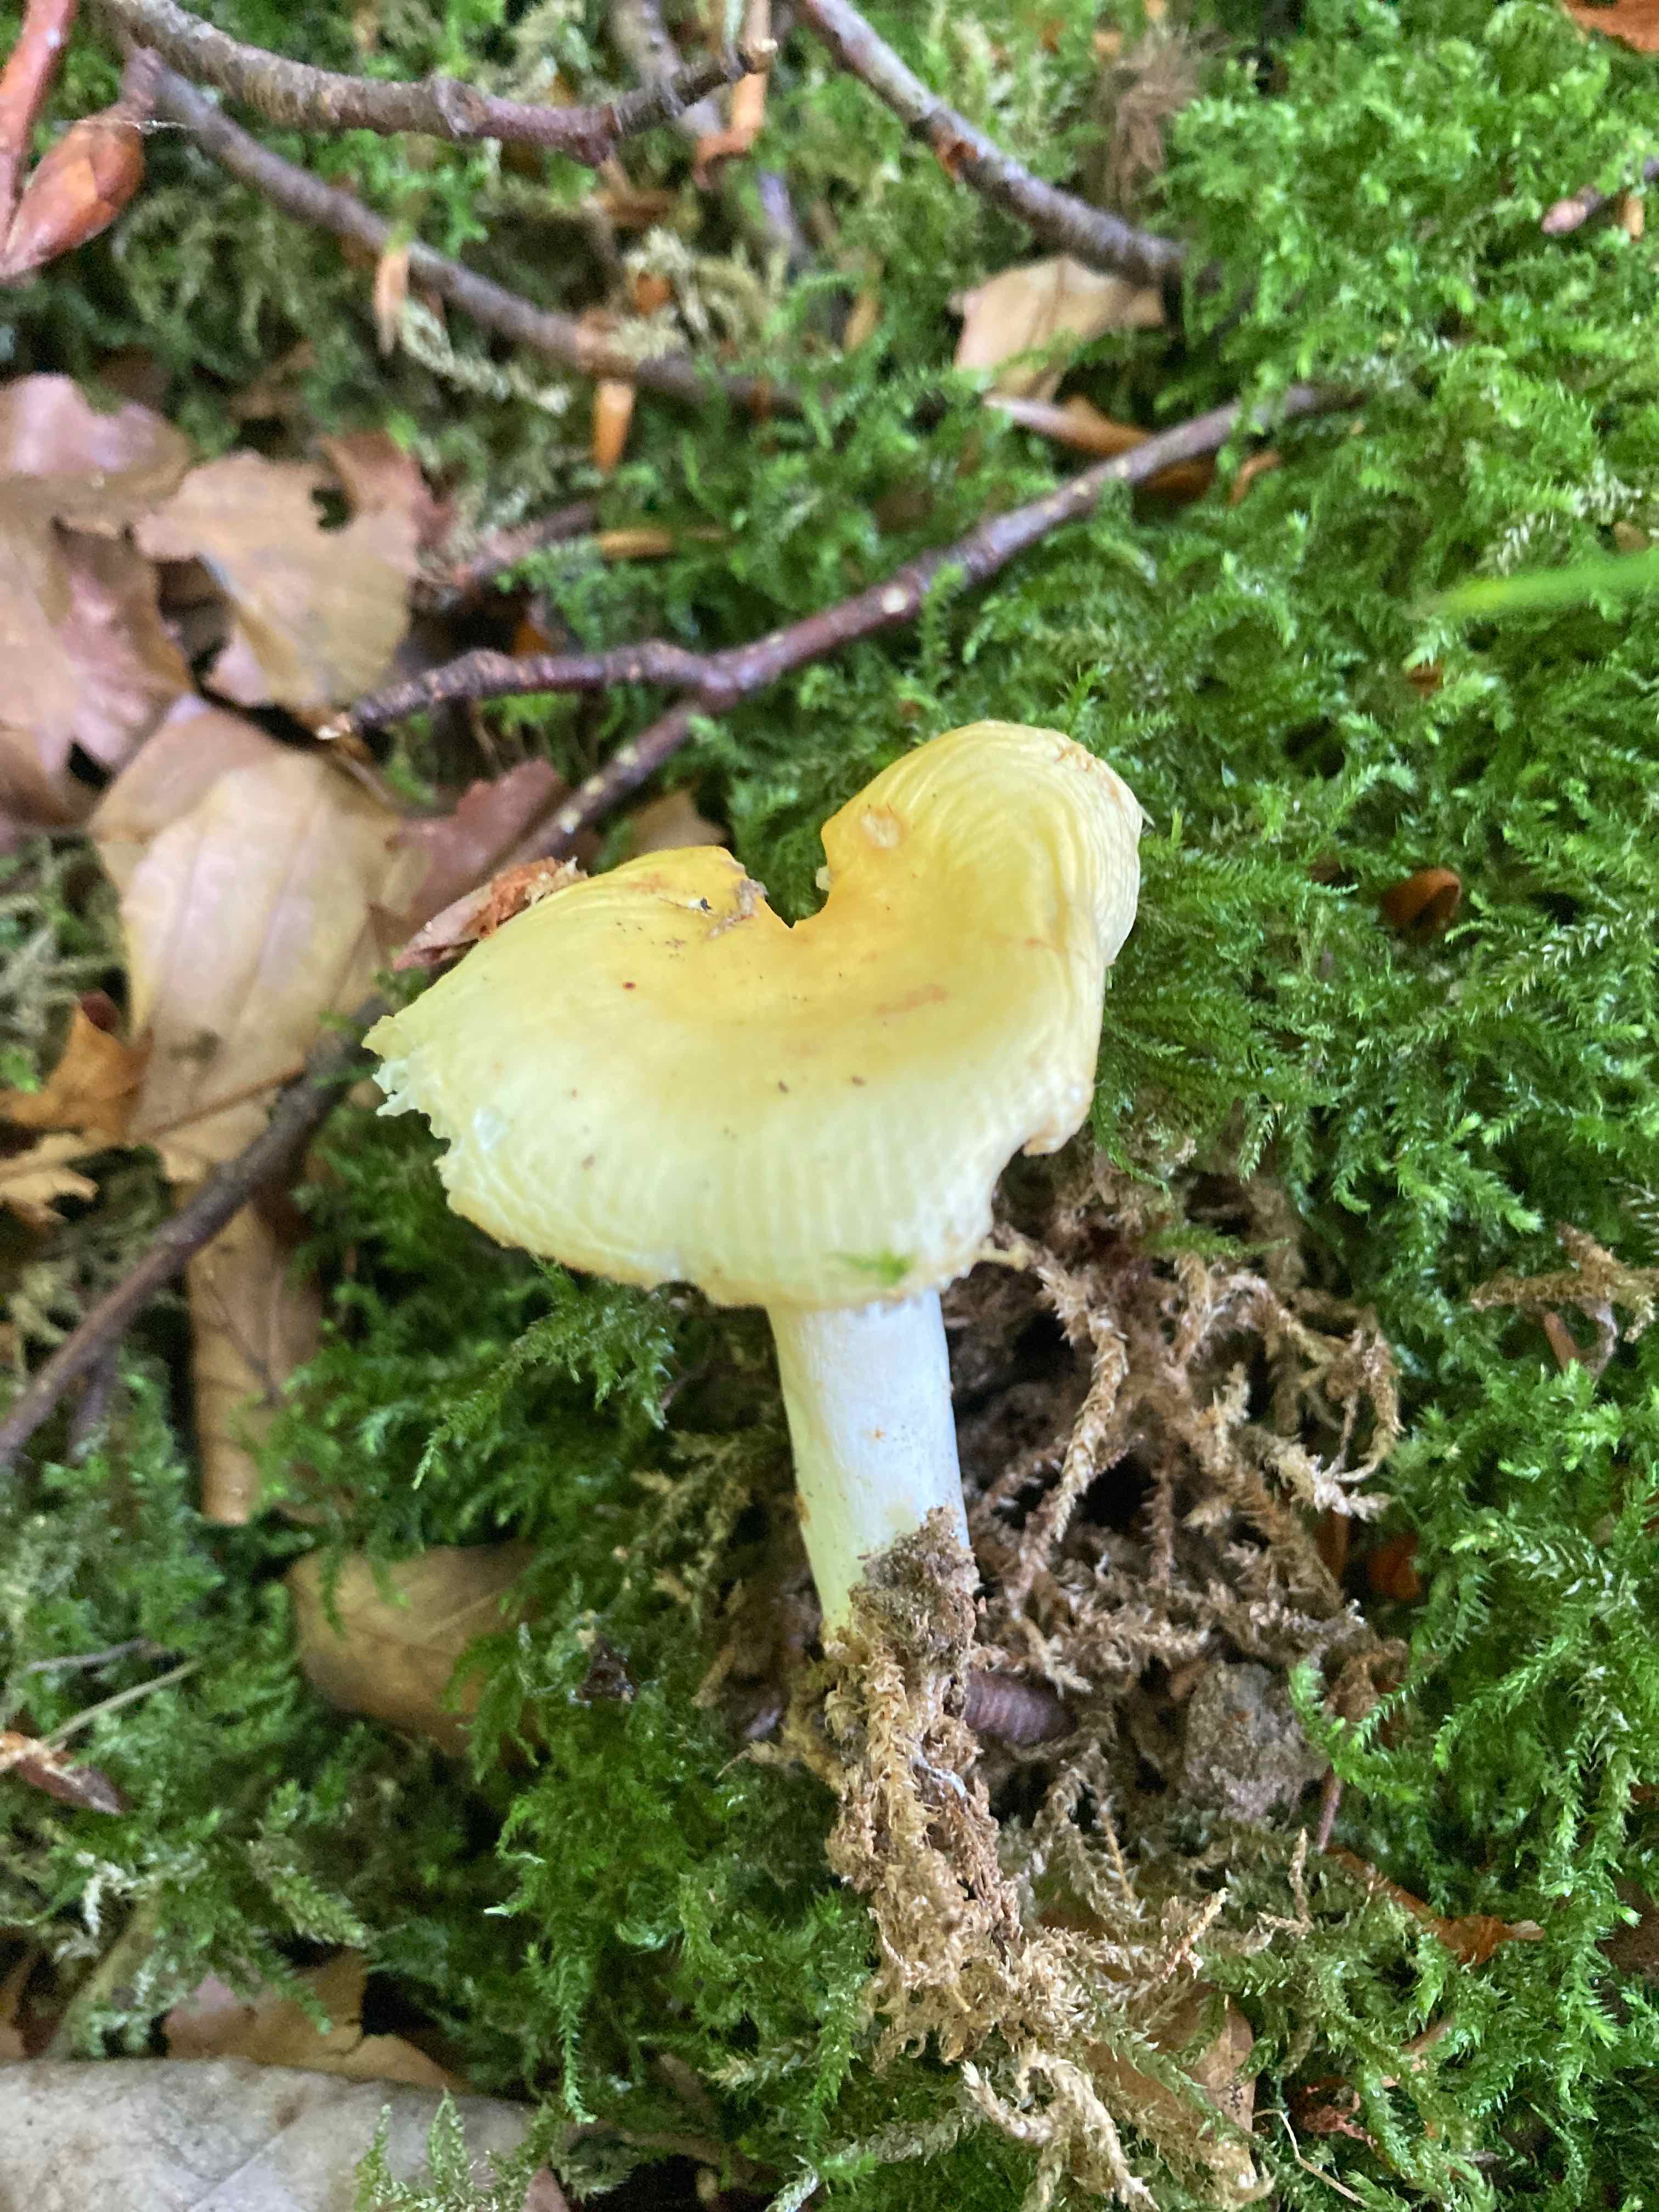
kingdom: Fungi
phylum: Basidiomycota
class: Agaricomycetes
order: Russulales
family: Russulaceae
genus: Russula
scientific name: Russula solaris
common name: sol-skørhat
